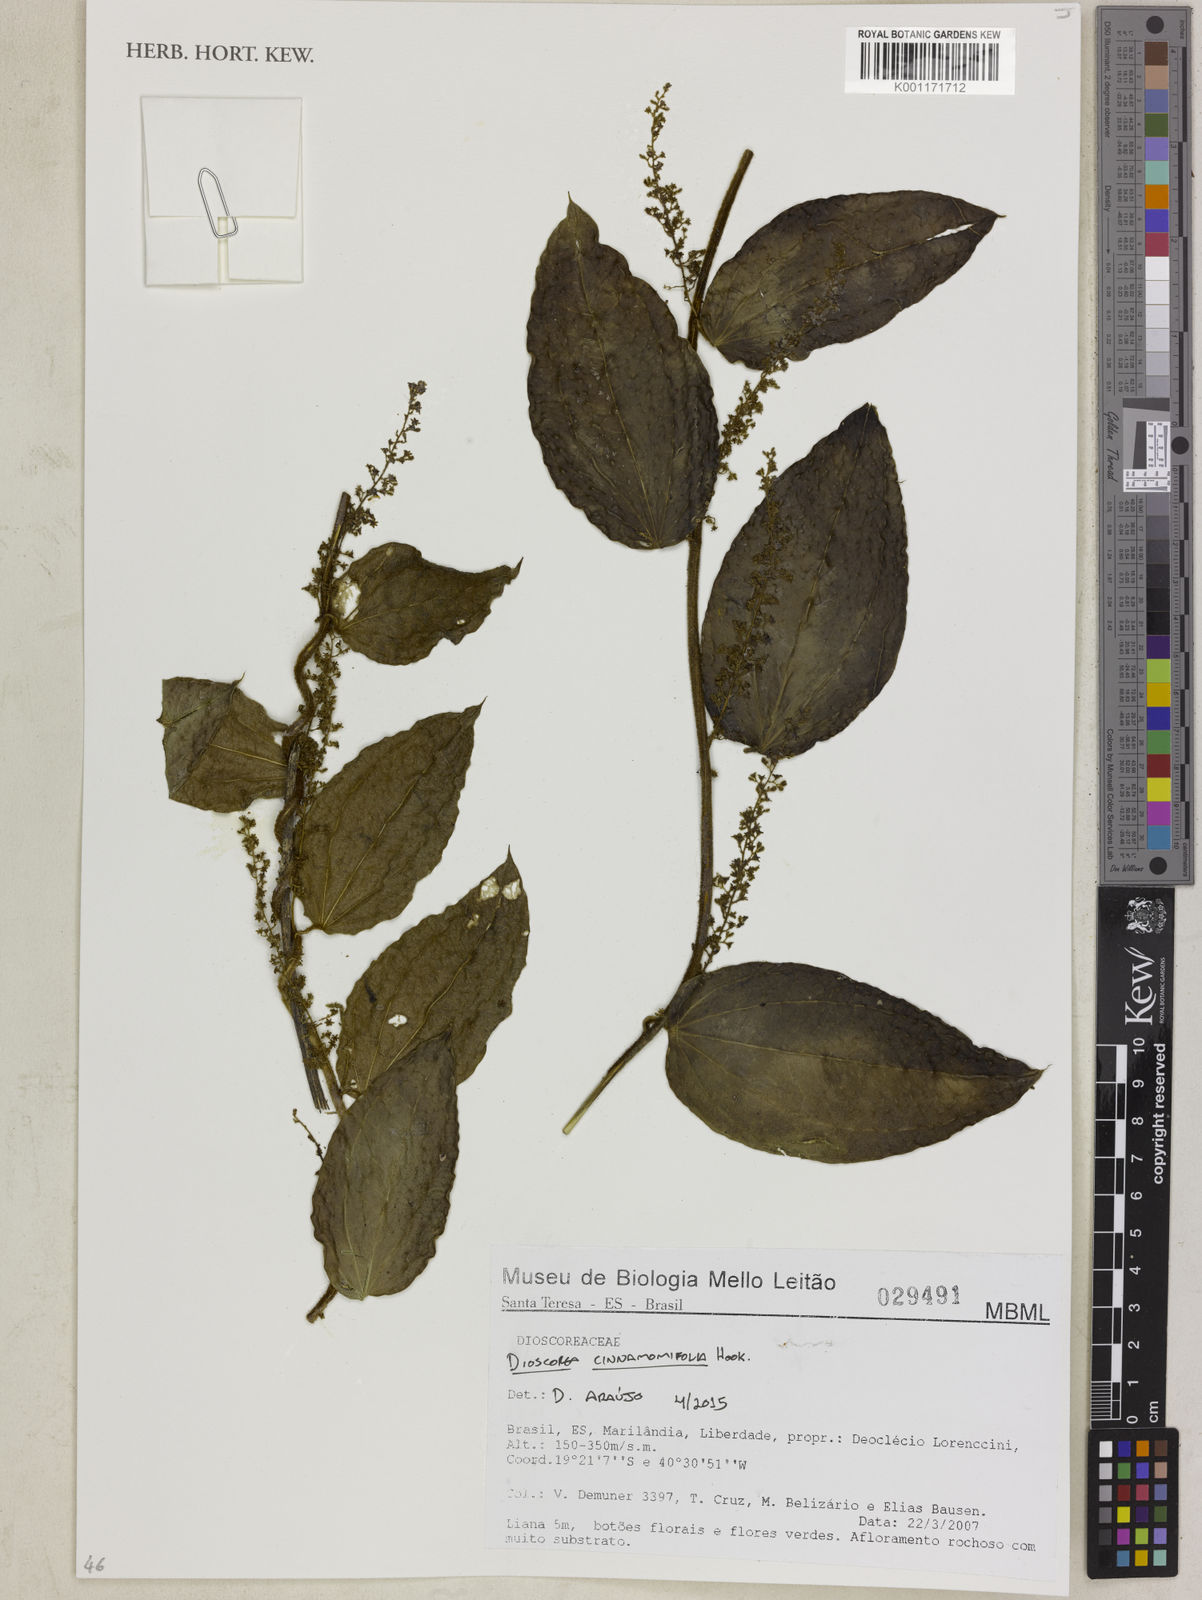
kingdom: Plantae
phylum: Tracheophyta
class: Liliopsida
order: Dioscoreales
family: Dioscoreaceae
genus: Dioscorea
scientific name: Dioscorea cinnamomifolia
